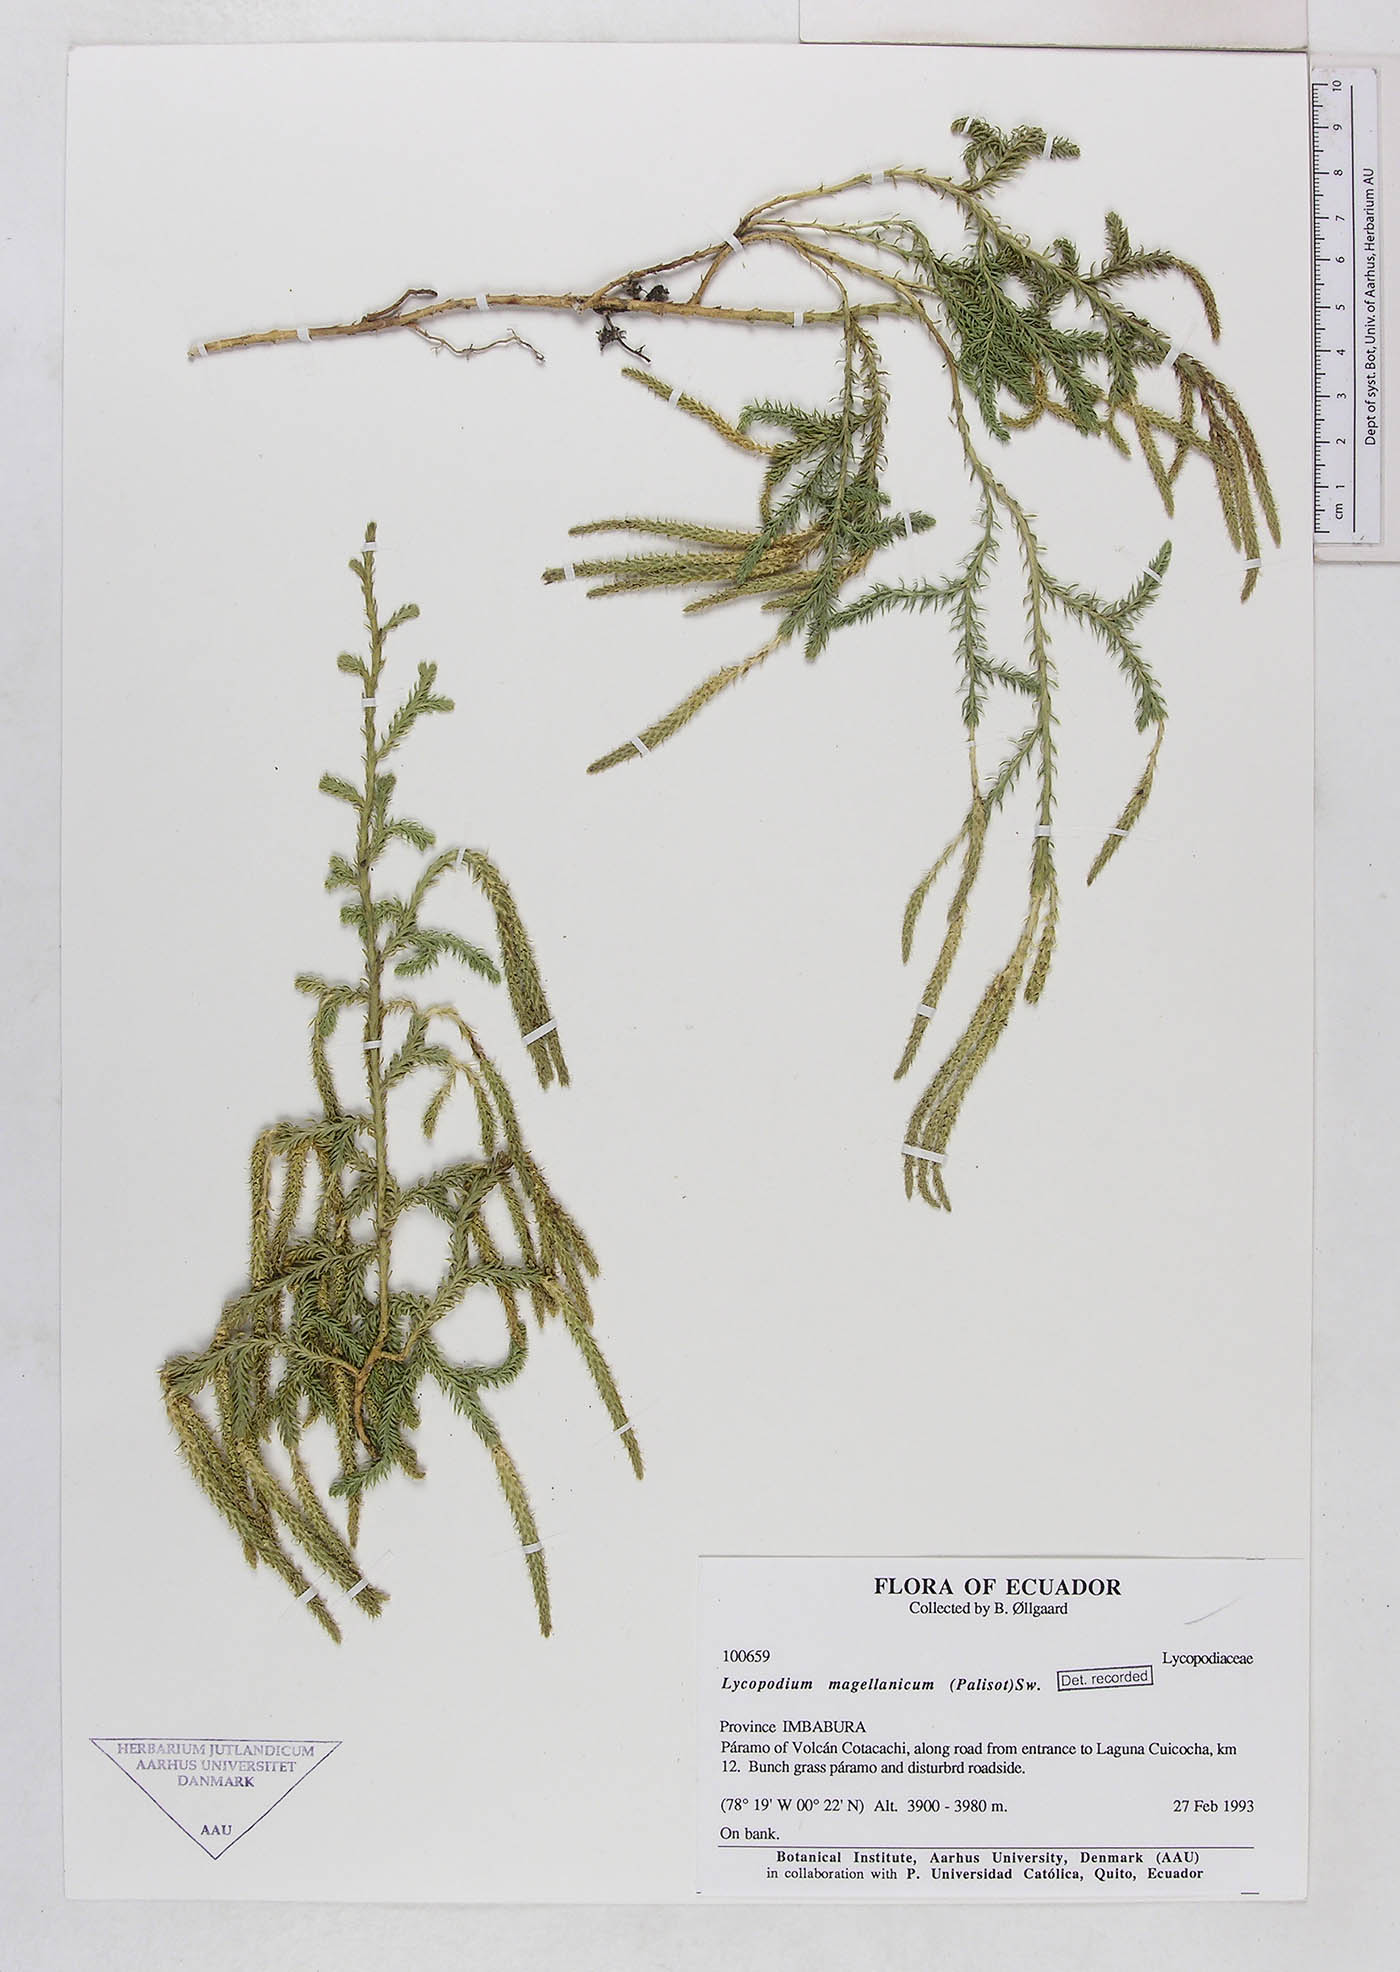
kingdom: Plantae
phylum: Tracheophyta
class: Lycopodiopsida
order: Lycopodiales
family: Lycopodiaceae
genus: Austrolycopodium
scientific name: Austrolycopodium magellanicum
